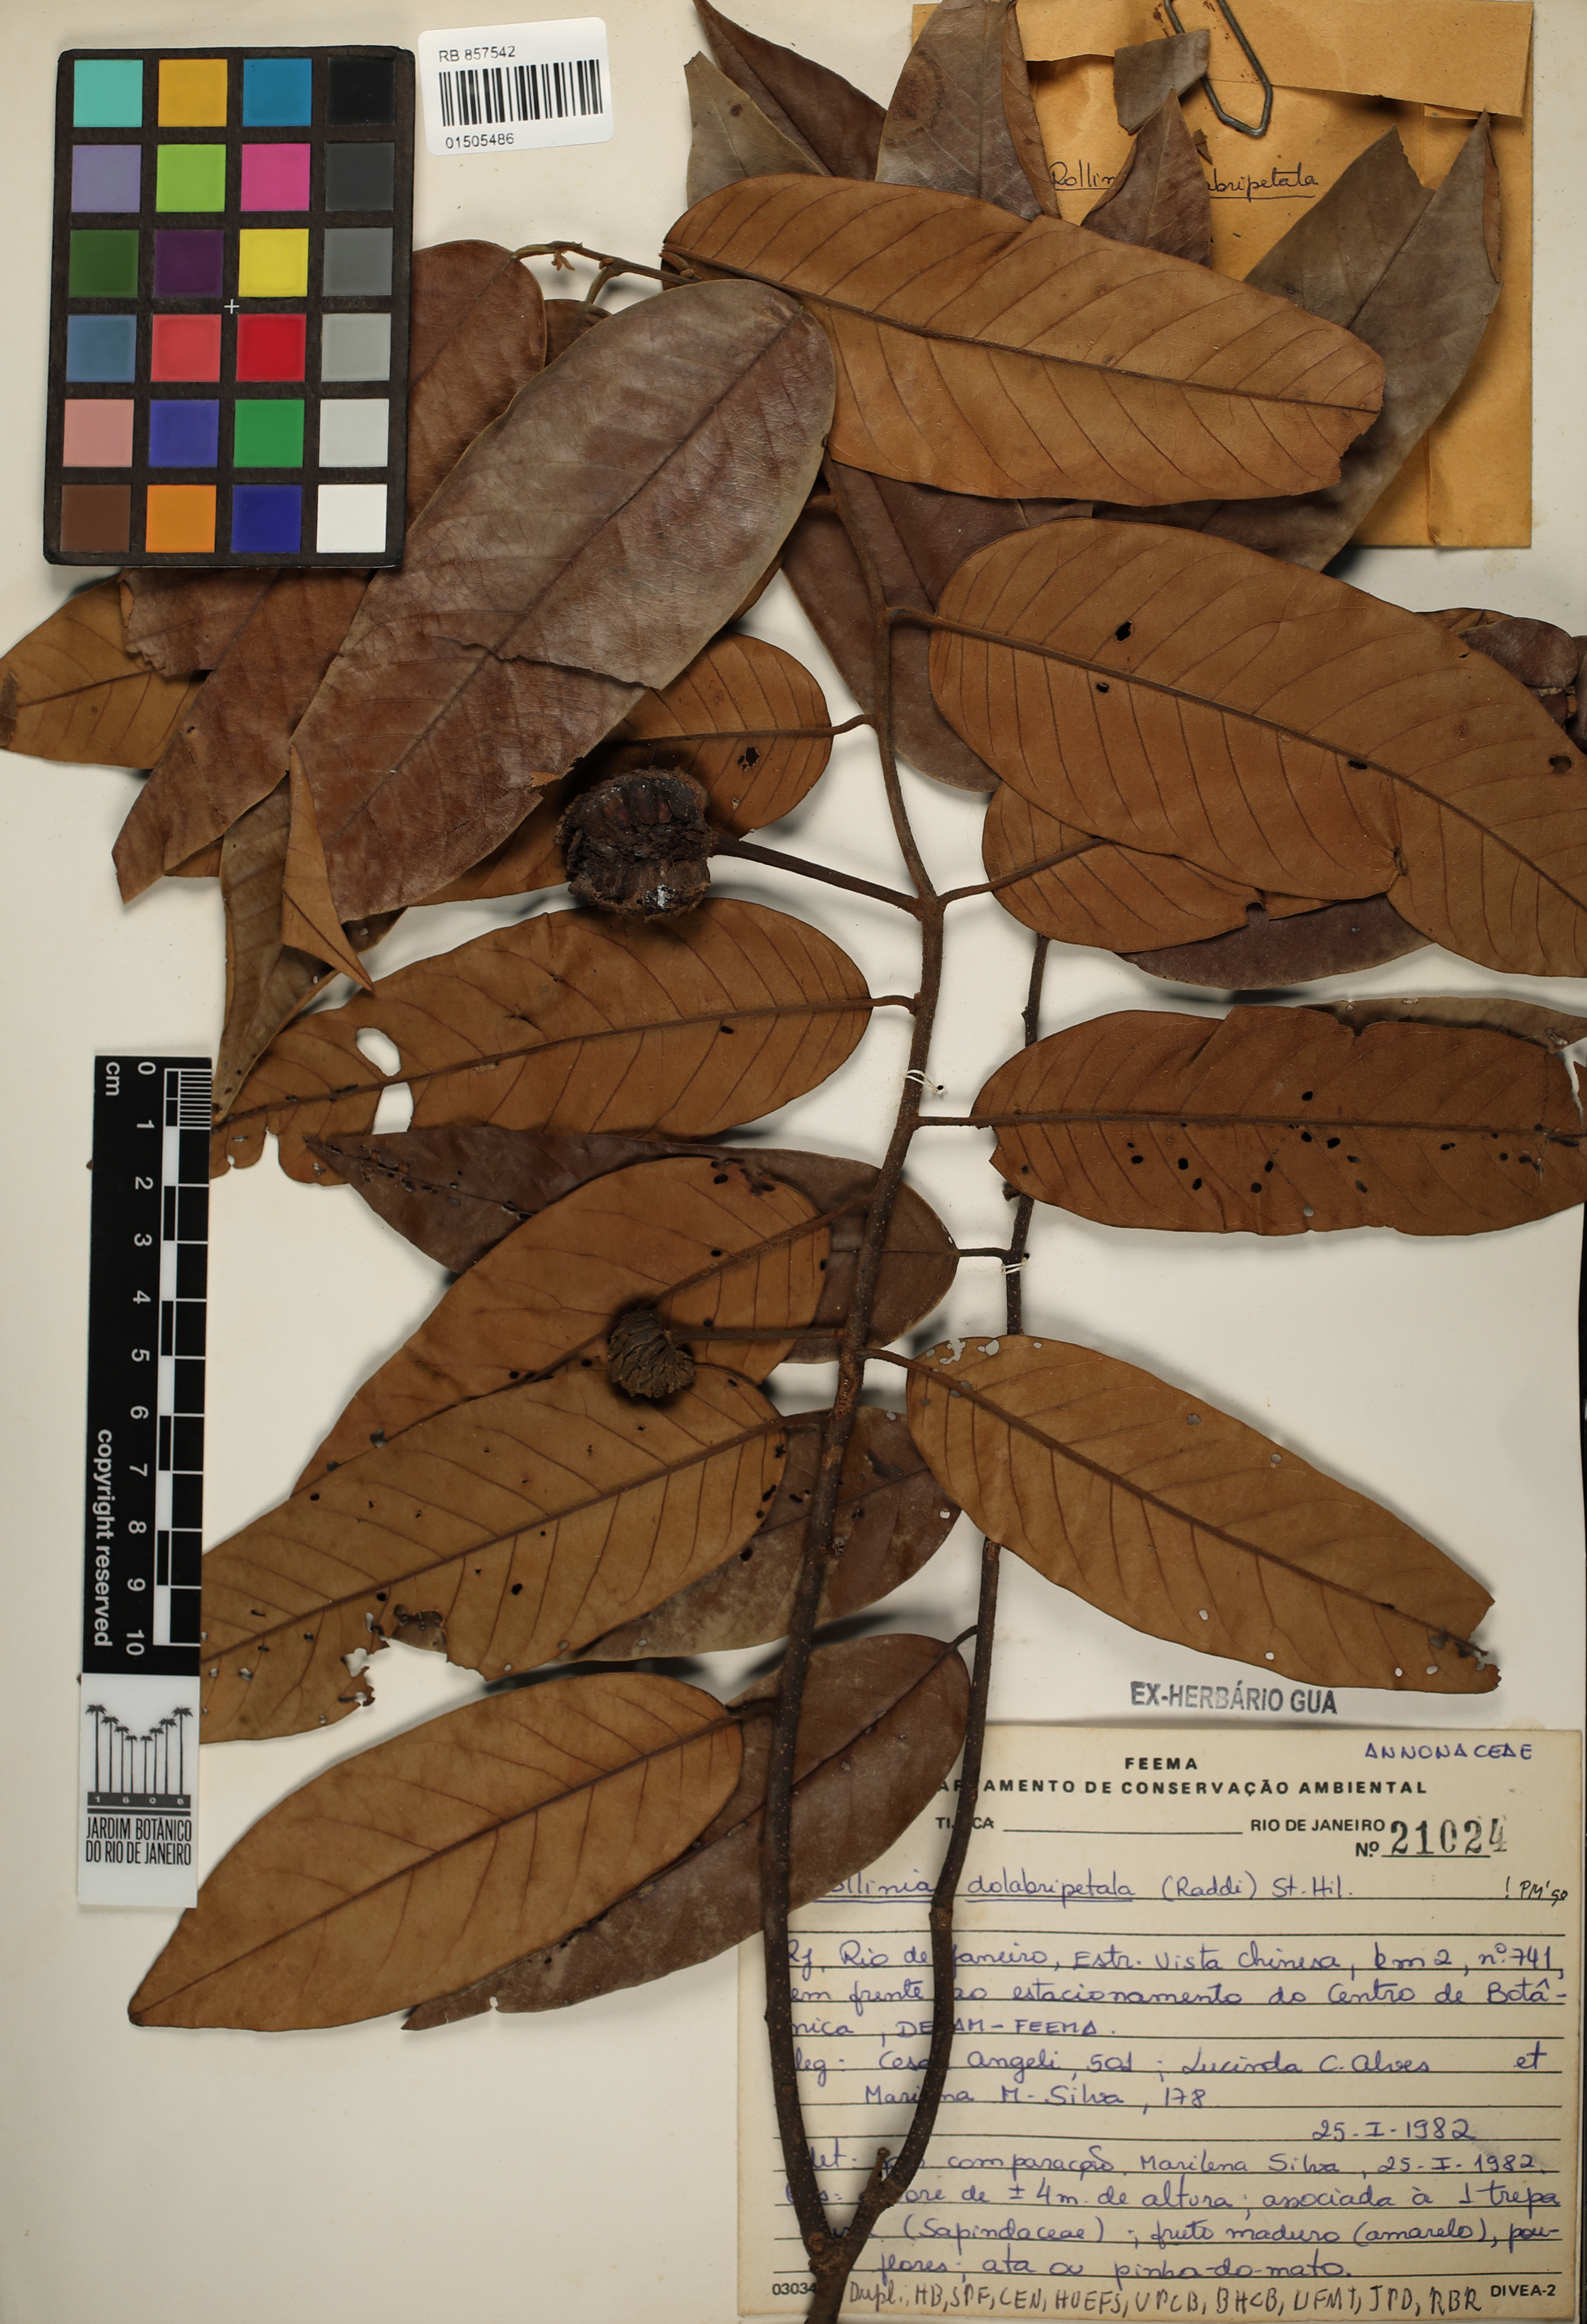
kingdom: Plantae
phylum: Tracheophyta
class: Magnoliopsida
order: Magnoliales
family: Annonaceae
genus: Annona
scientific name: Annona dolabripetala
